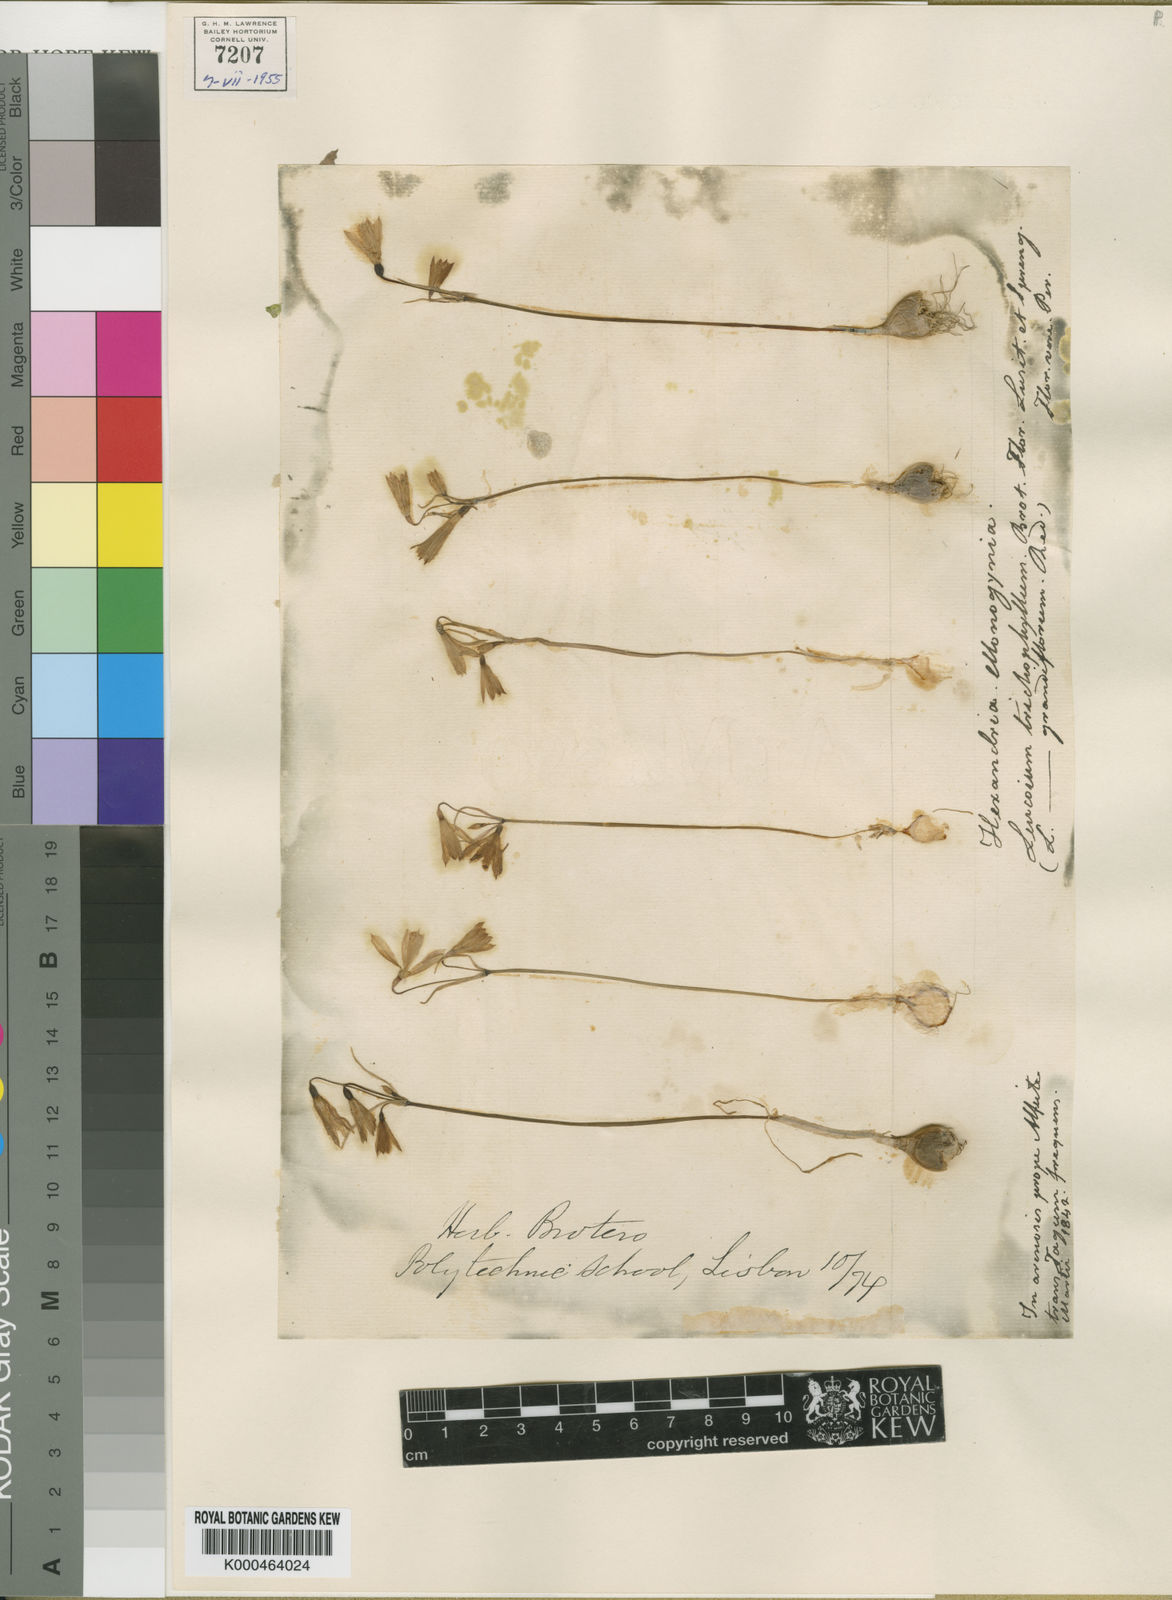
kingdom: Plantae
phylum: Tracheophyta
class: Liliopsida
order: Asparagales
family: Amaryllidaceae
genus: Acis
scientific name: Acis trichophylla
